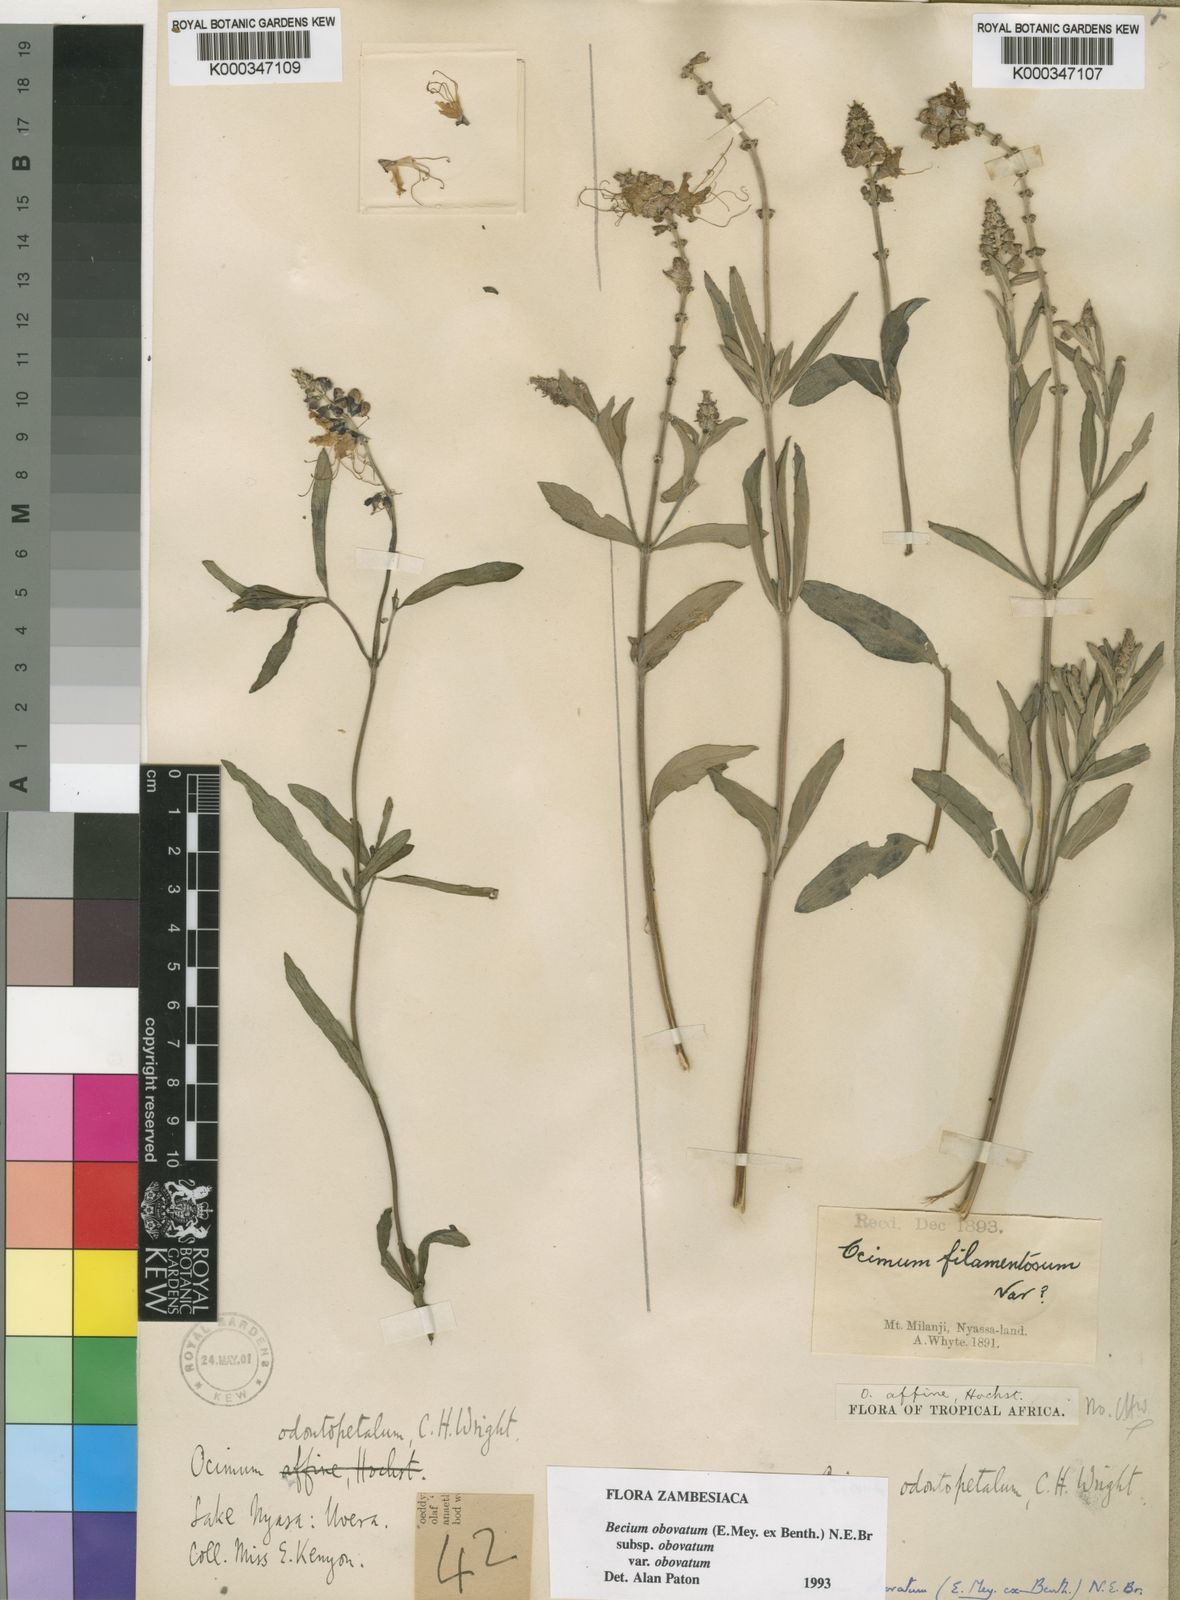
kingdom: Plantae
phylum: Tracheophyta
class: Magnoliopsida
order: Lamiales
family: Lamiaceae
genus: Ocimum
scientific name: Ocimum obovatum
